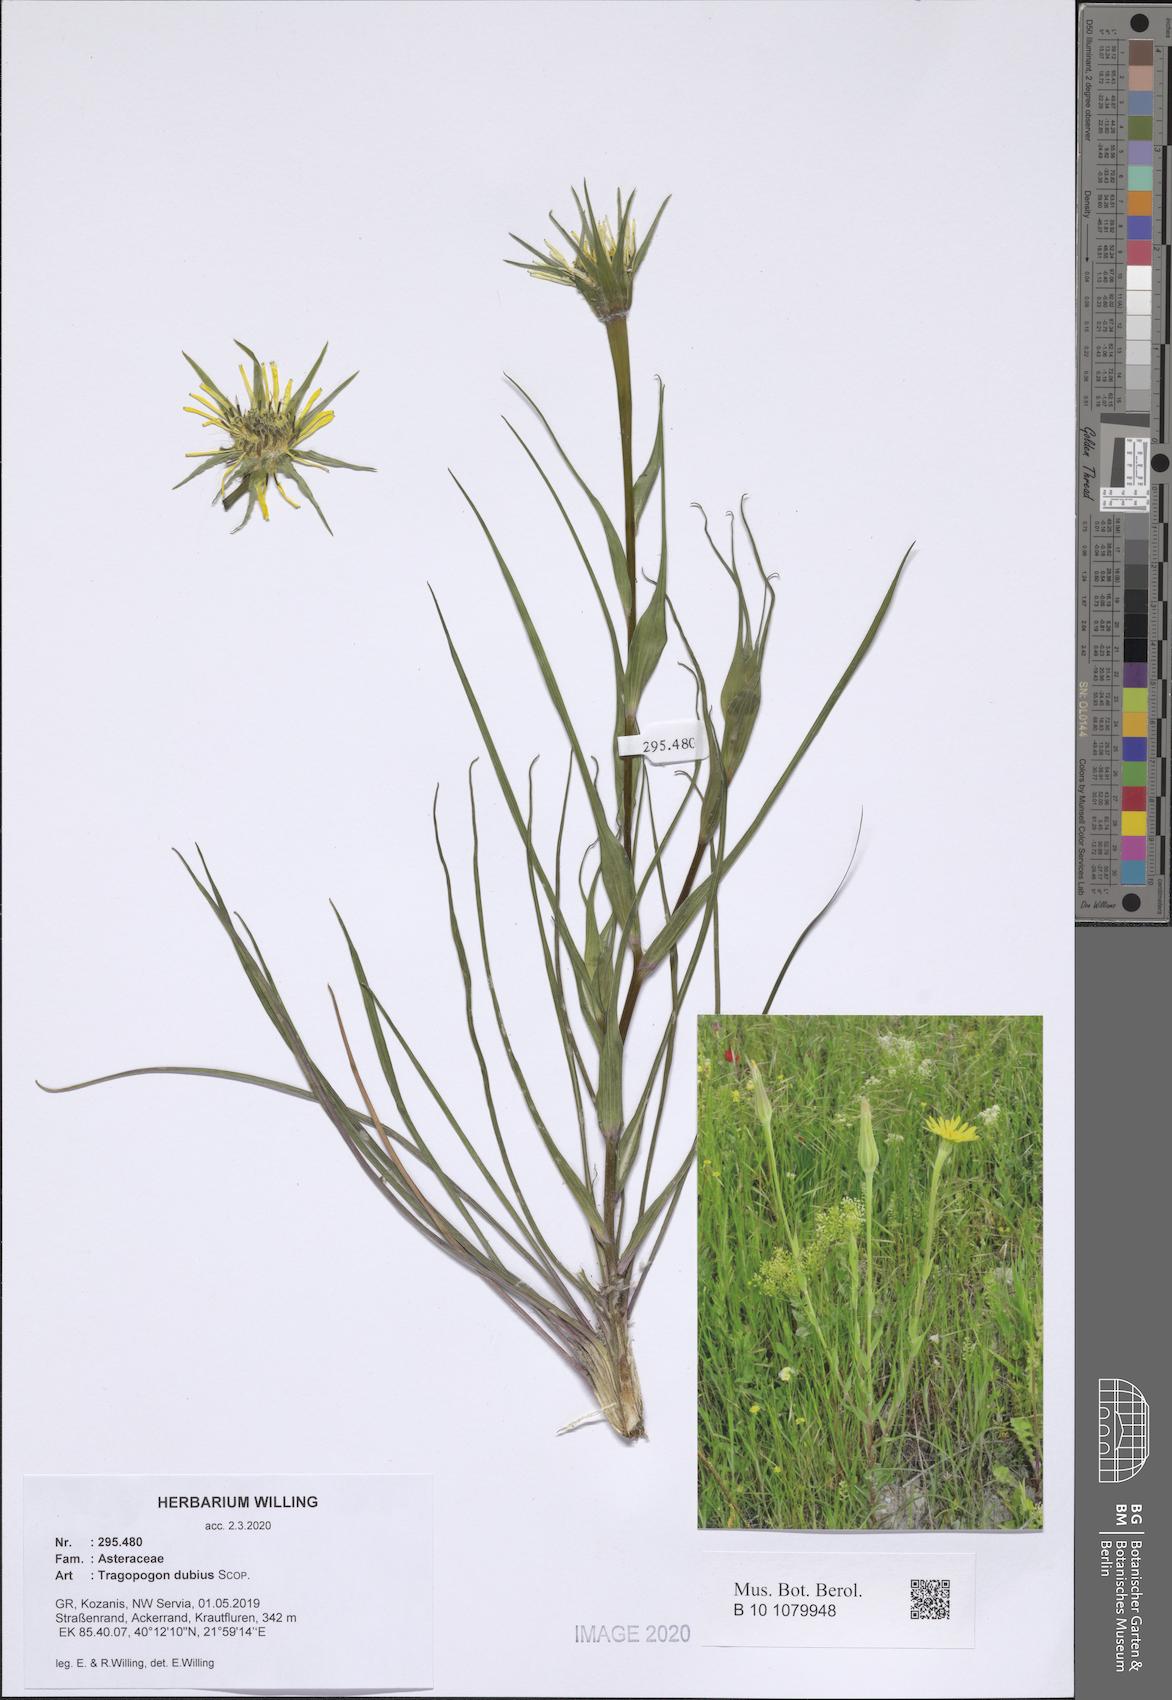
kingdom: Plantae
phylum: Tracheophyta
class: Magnoliopsida
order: Asterales
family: Asteraceae
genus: Tragopogon
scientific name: Tragopogon dubius
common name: Yellow salsify
